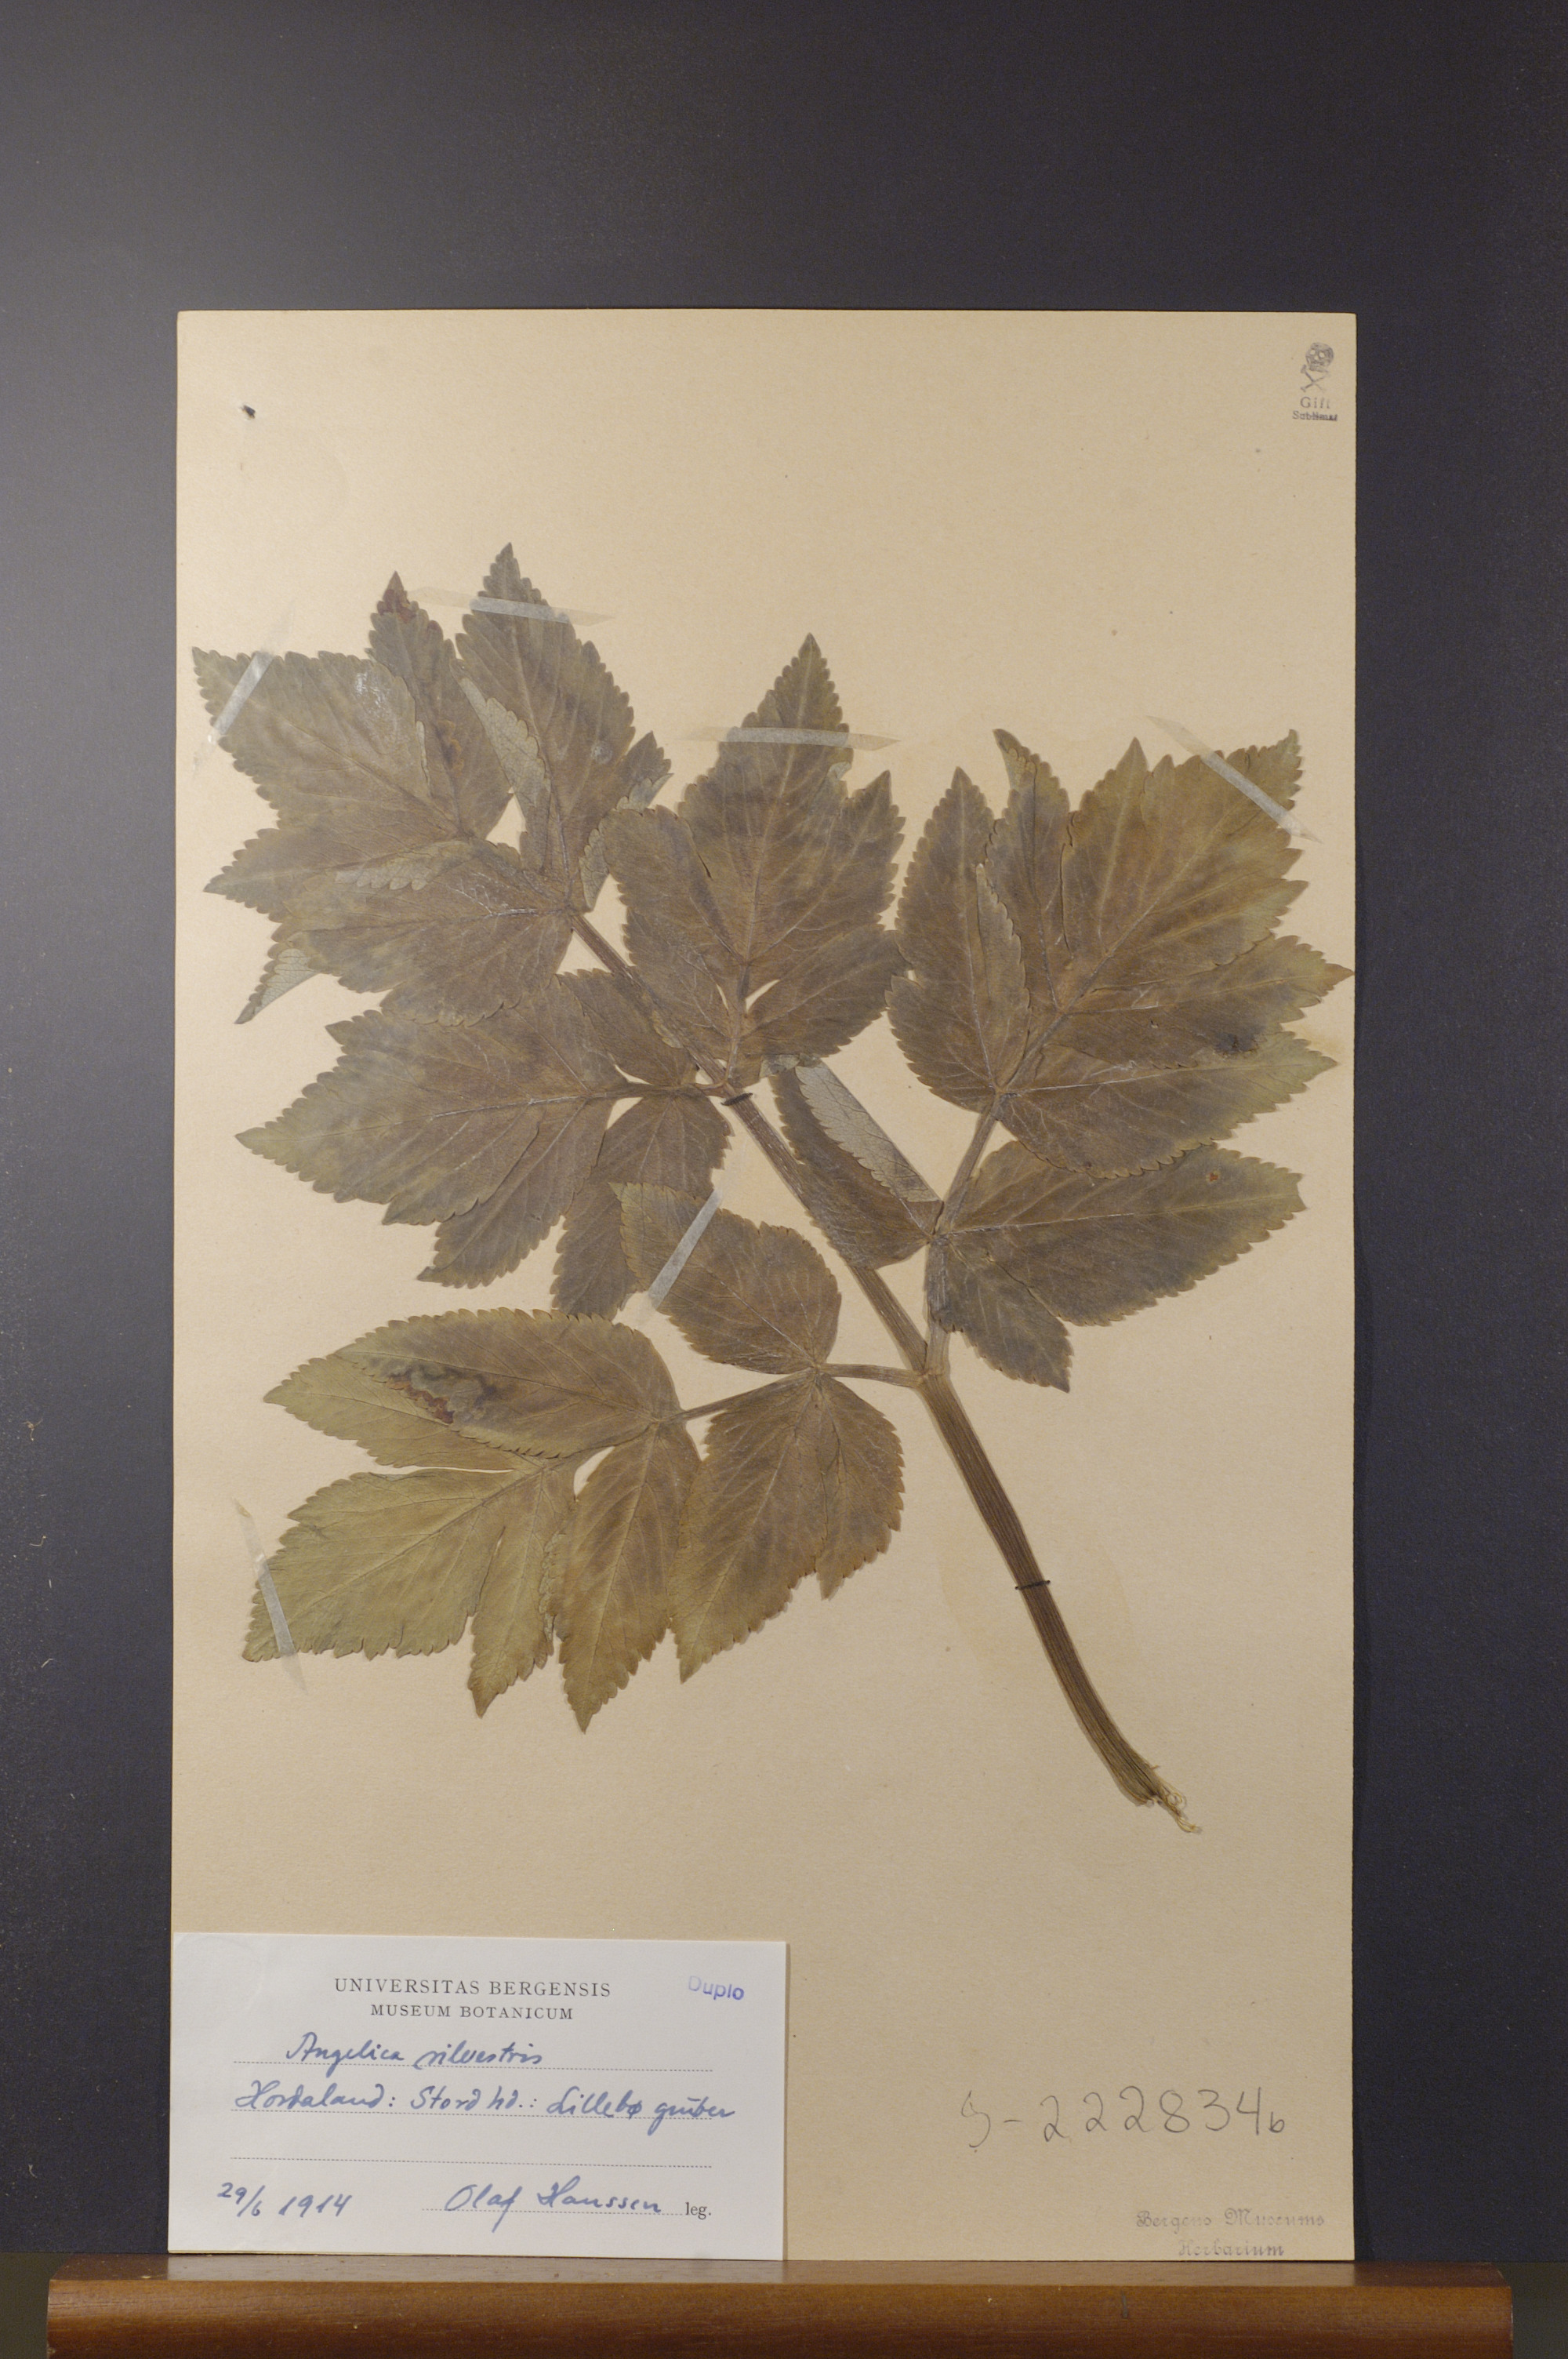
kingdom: Plantae
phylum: Tracheophyta
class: Magnoliopsida
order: Apiales
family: Apiaceae
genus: Angelica
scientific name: Angelica sylvestris
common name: Wild angelica
